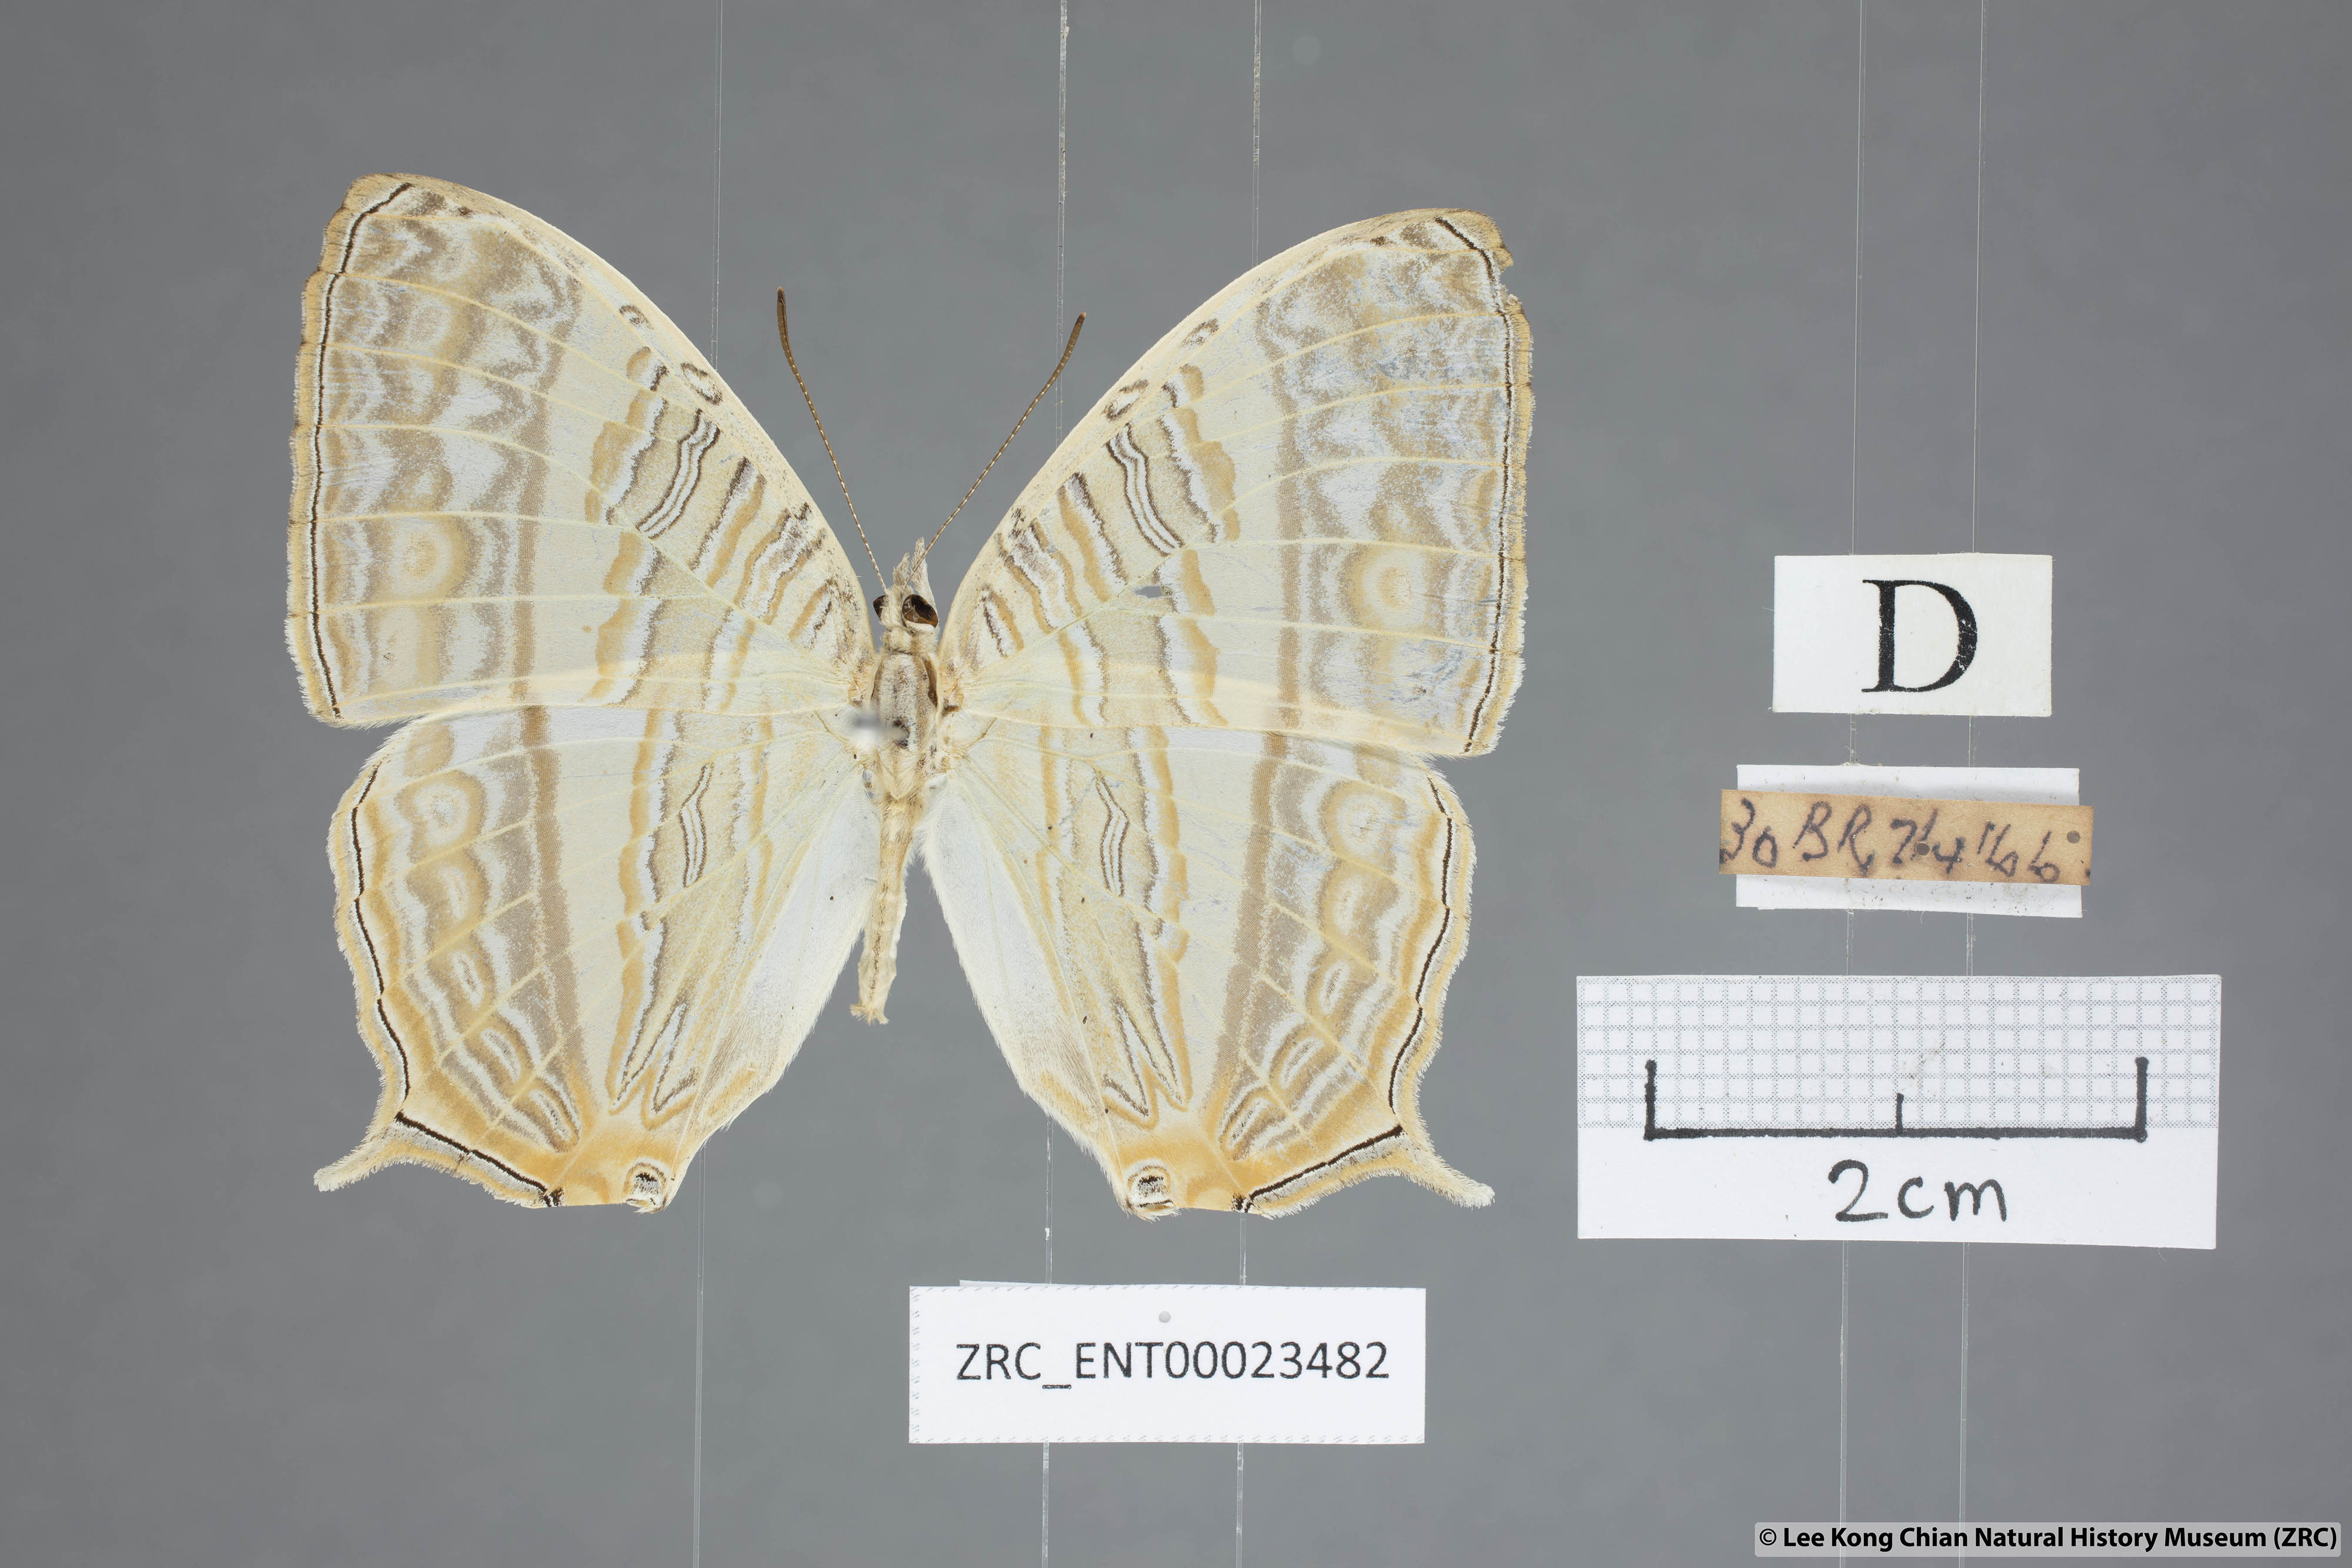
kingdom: Animalia
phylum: Arthropoda
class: Insecta
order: Lepidoptera
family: Nymphalidae
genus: Cyrestis
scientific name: Cyrestis cocles
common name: Marbled map
